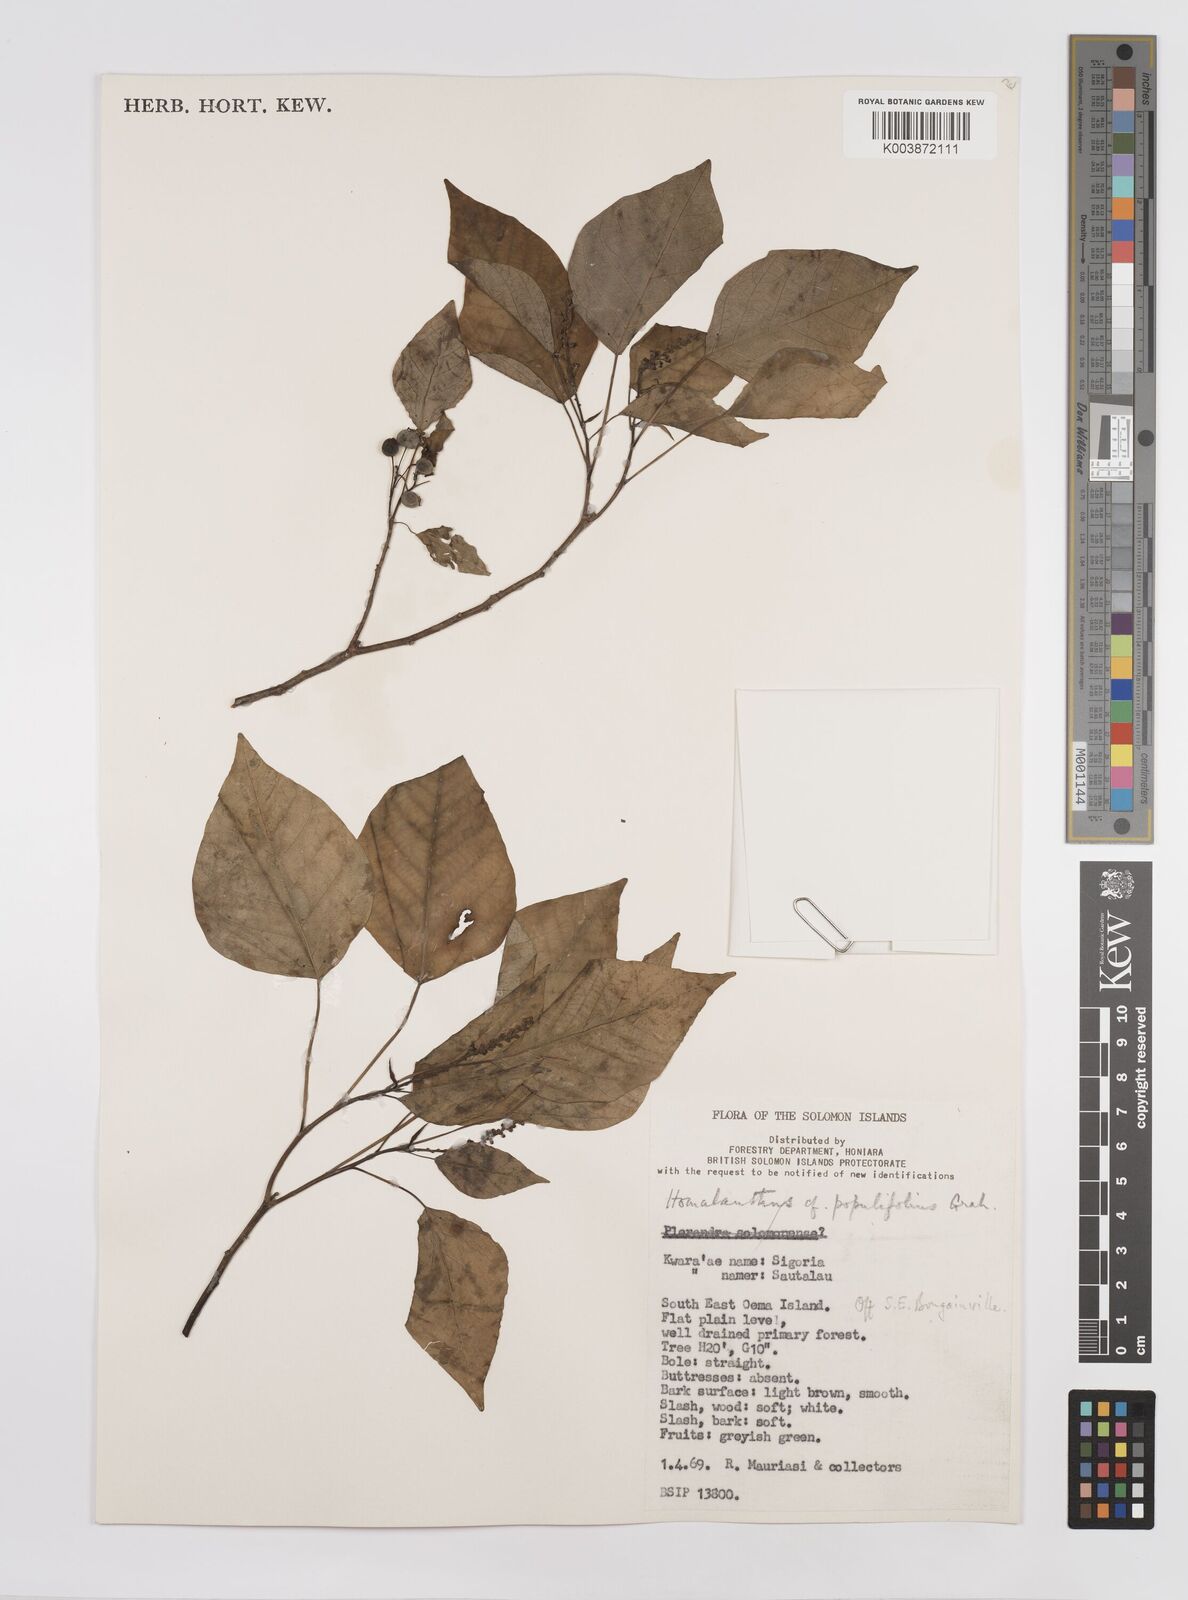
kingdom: Plantae
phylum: Tracheophyta
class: Magnoliopsida
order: Malpighiales
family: Euphorbiaceae
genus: Homalanthus
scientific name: Homalanthus populifolius
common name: Queensland poplar
